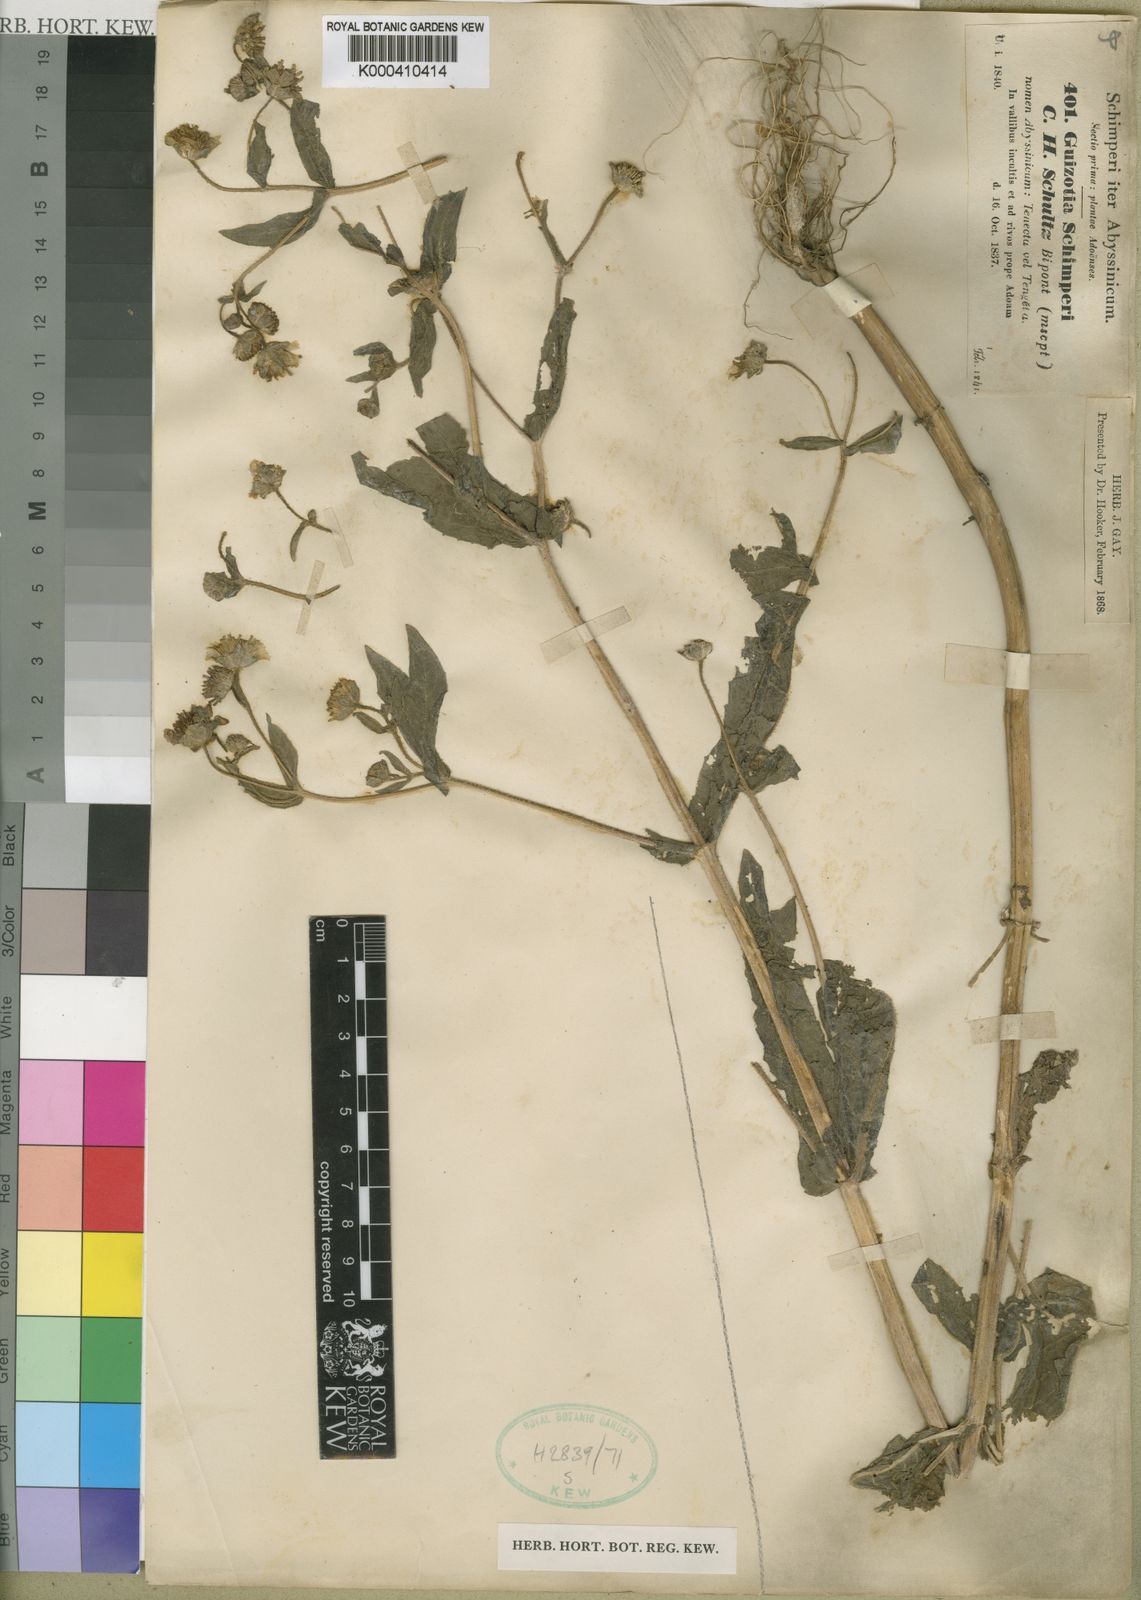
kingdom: Plantae
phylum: Tracheophyta
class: Magnoliopsida
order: Asterales
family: Asteraceae
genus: Guizotia
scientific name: Guizotia schimperi
